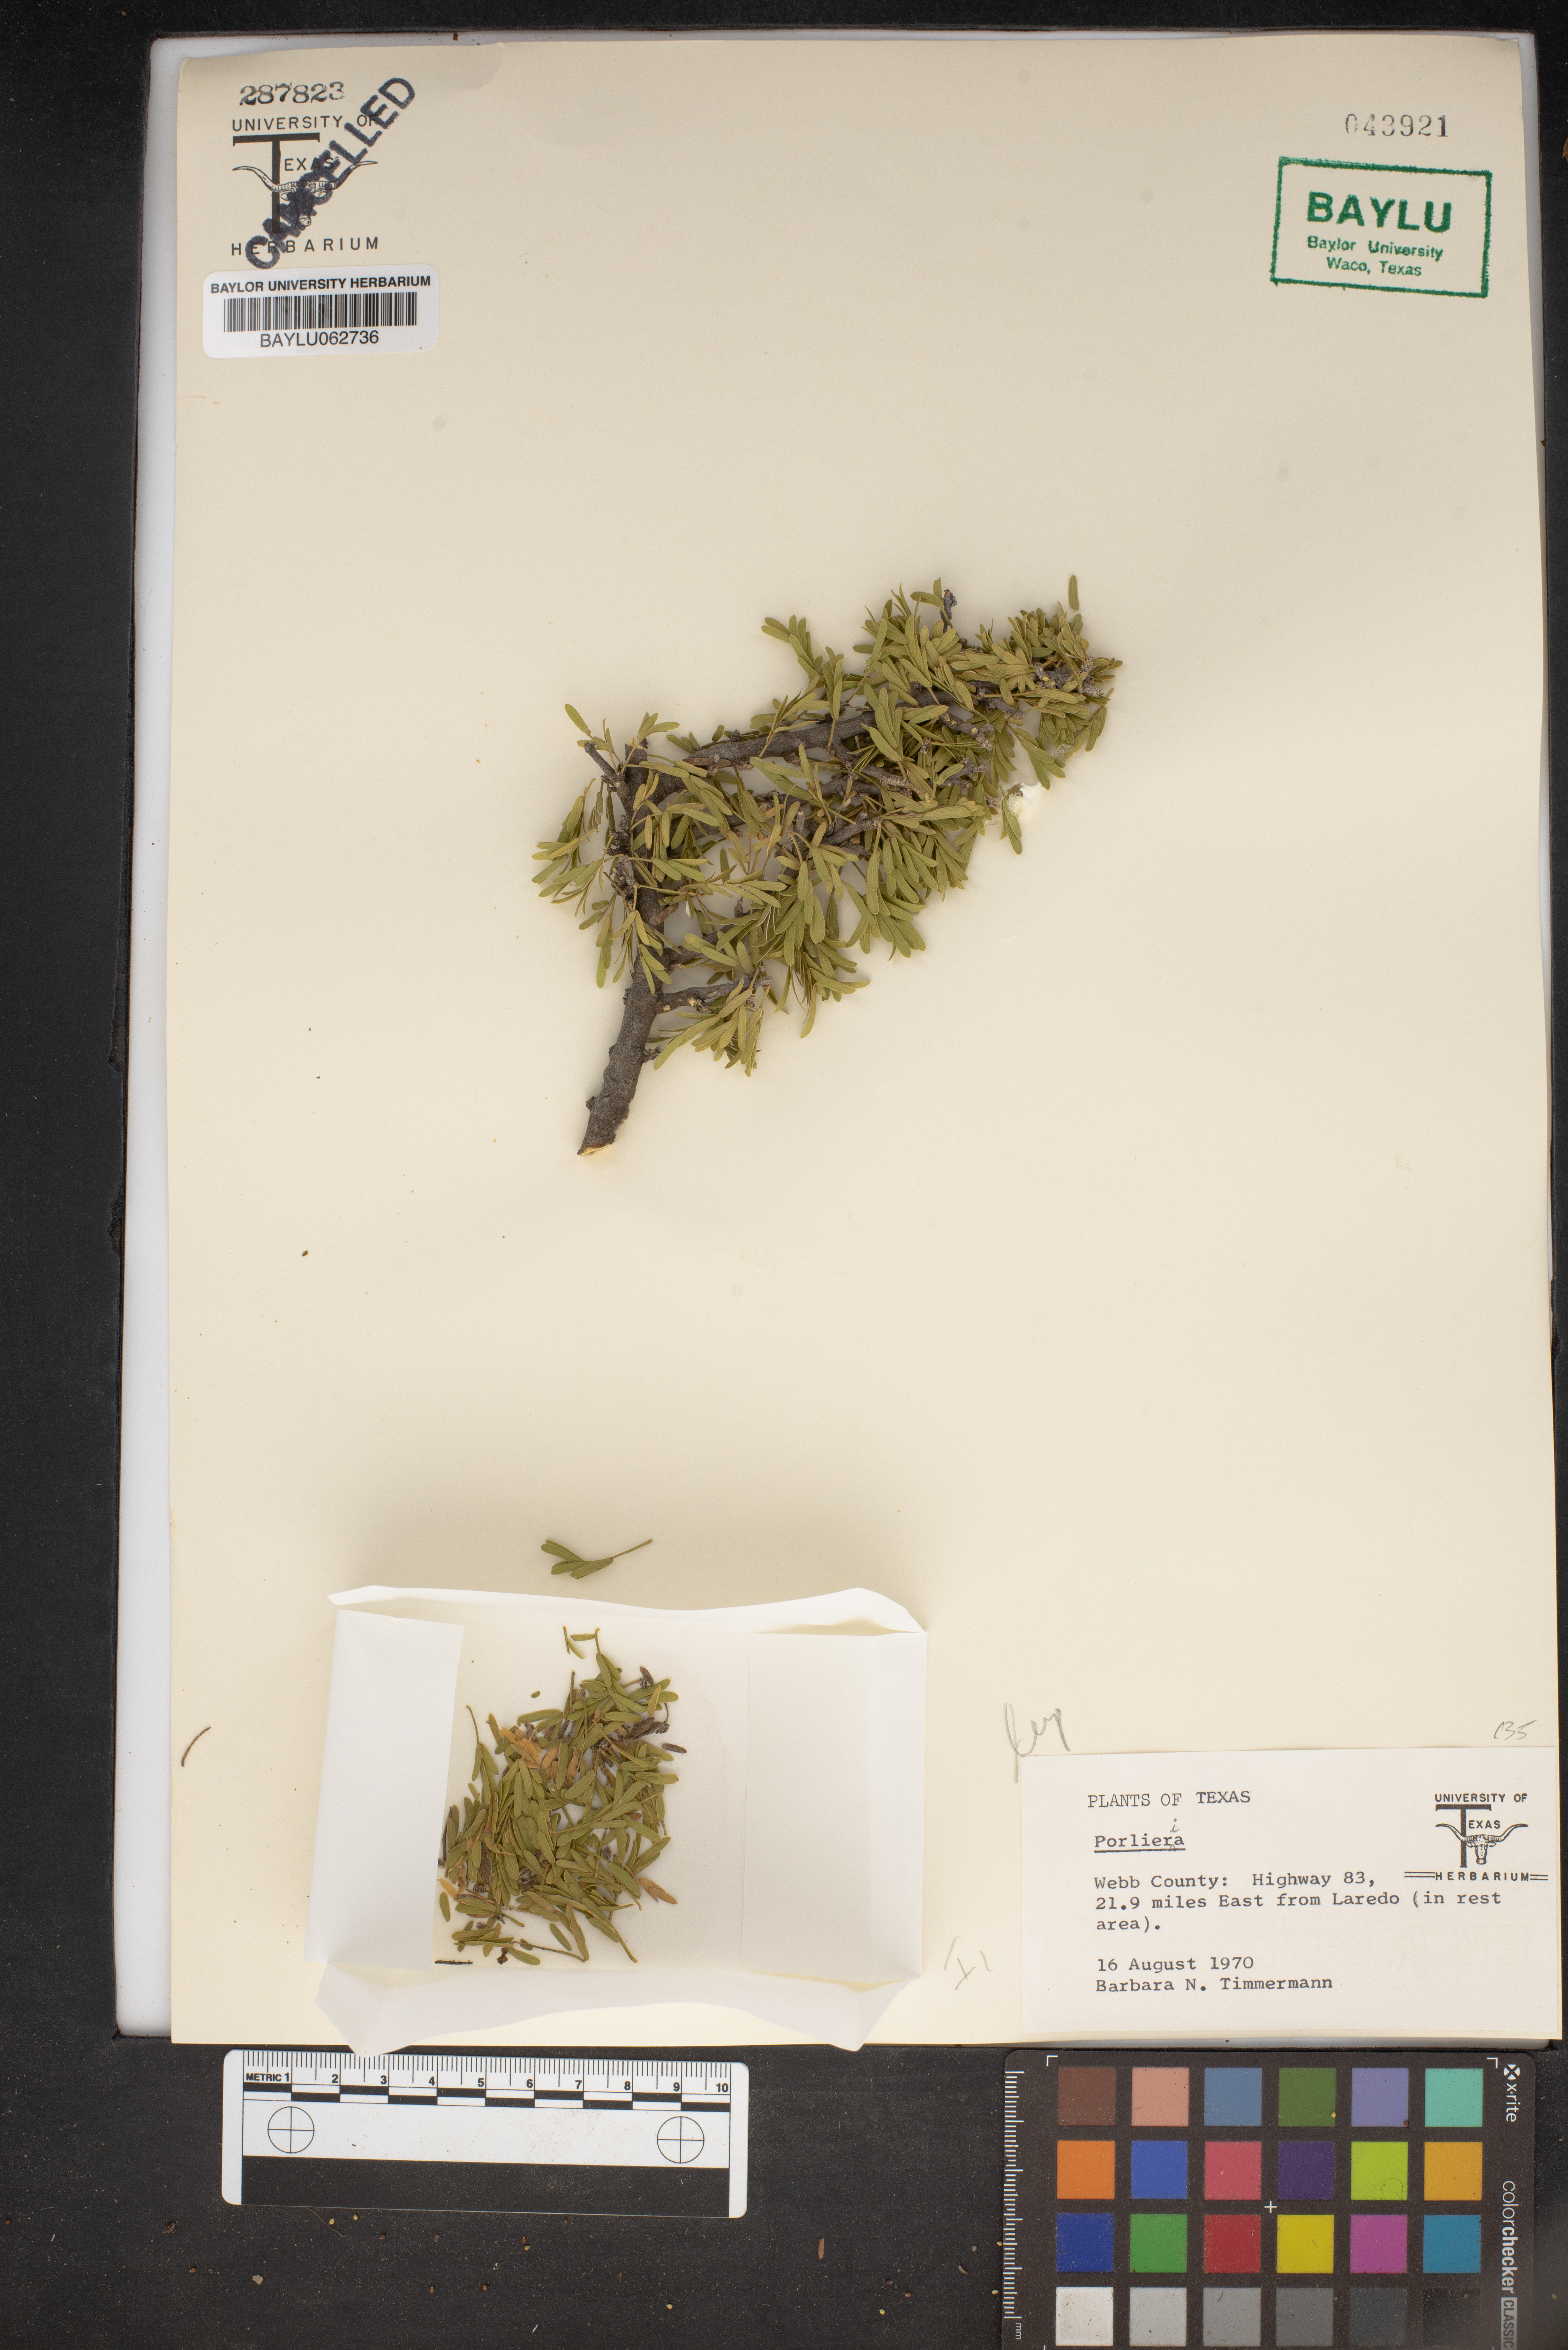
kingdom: Plantae
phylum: Tracheophyta
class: Magnoliopsida
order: Zygophyllales
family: Zygophyllaceae
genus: Porlieria
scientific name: Porlieria
